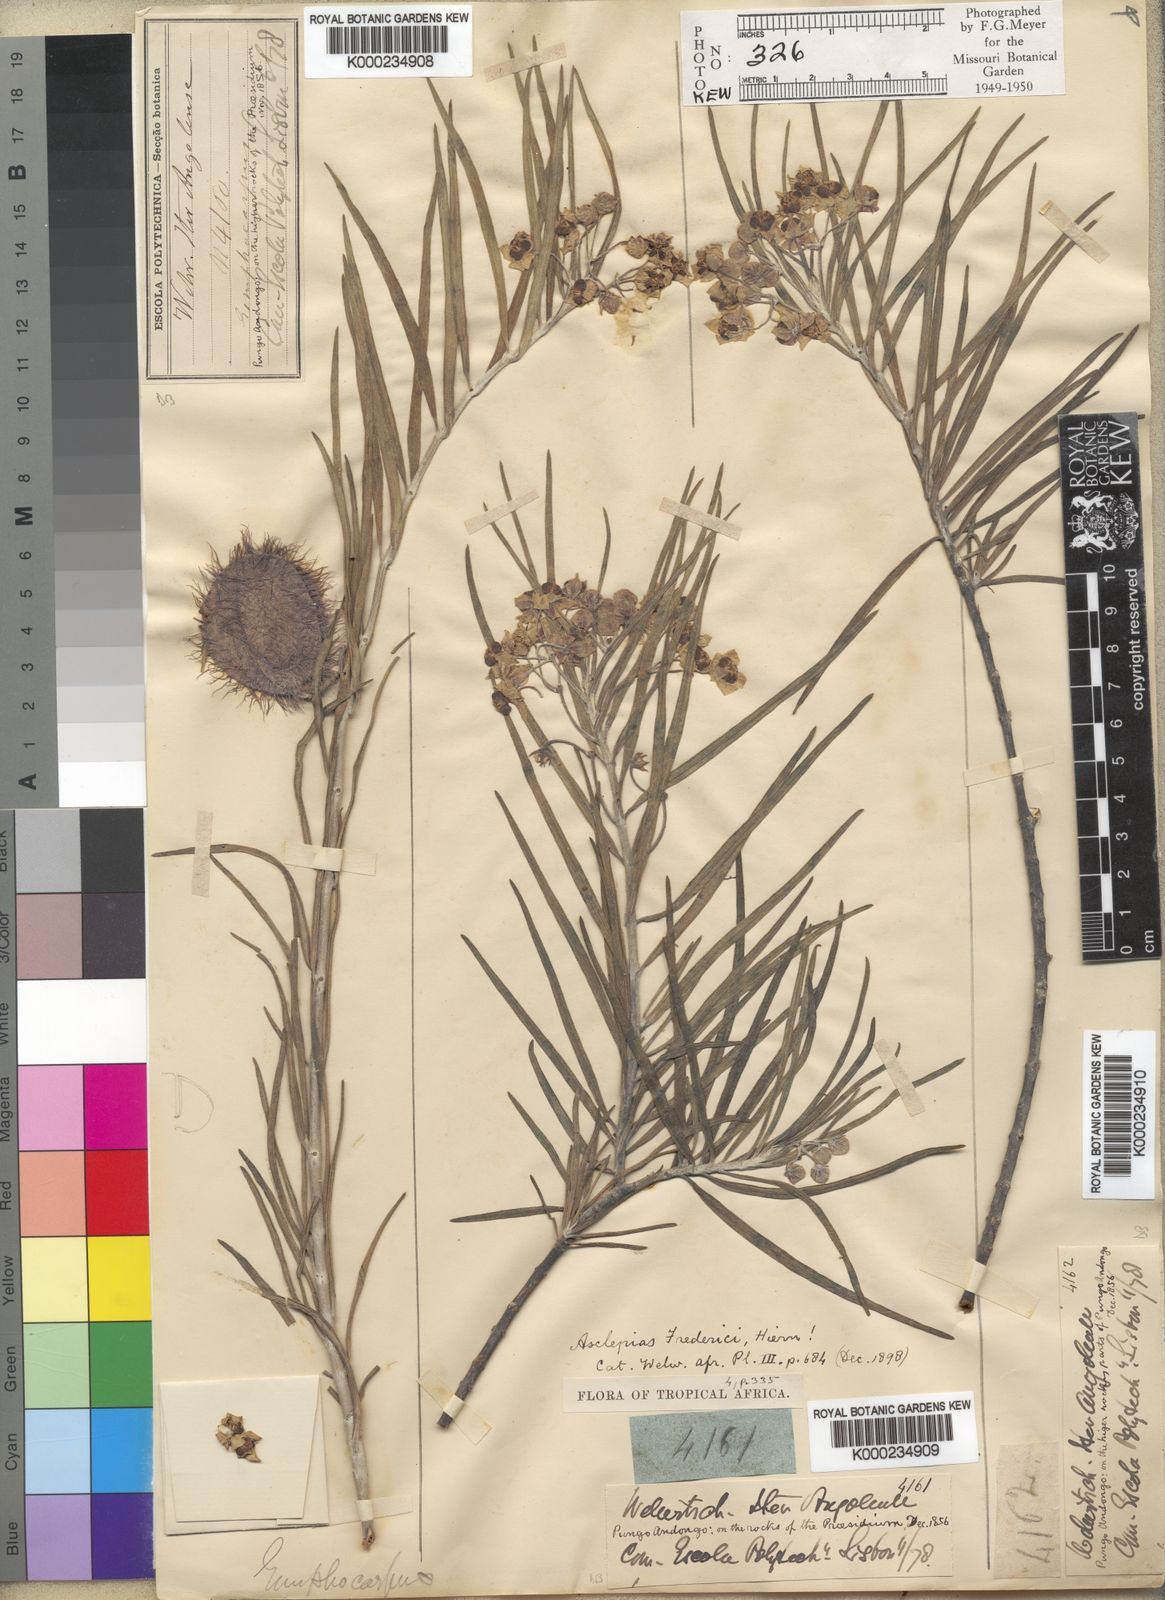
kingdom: Plantae
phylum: Tracheophyta
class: Magnoliopsida
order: Gentianales
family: Apocynaceae
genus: Gomphocarpus
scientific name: Gomphocarpus tomentosus
